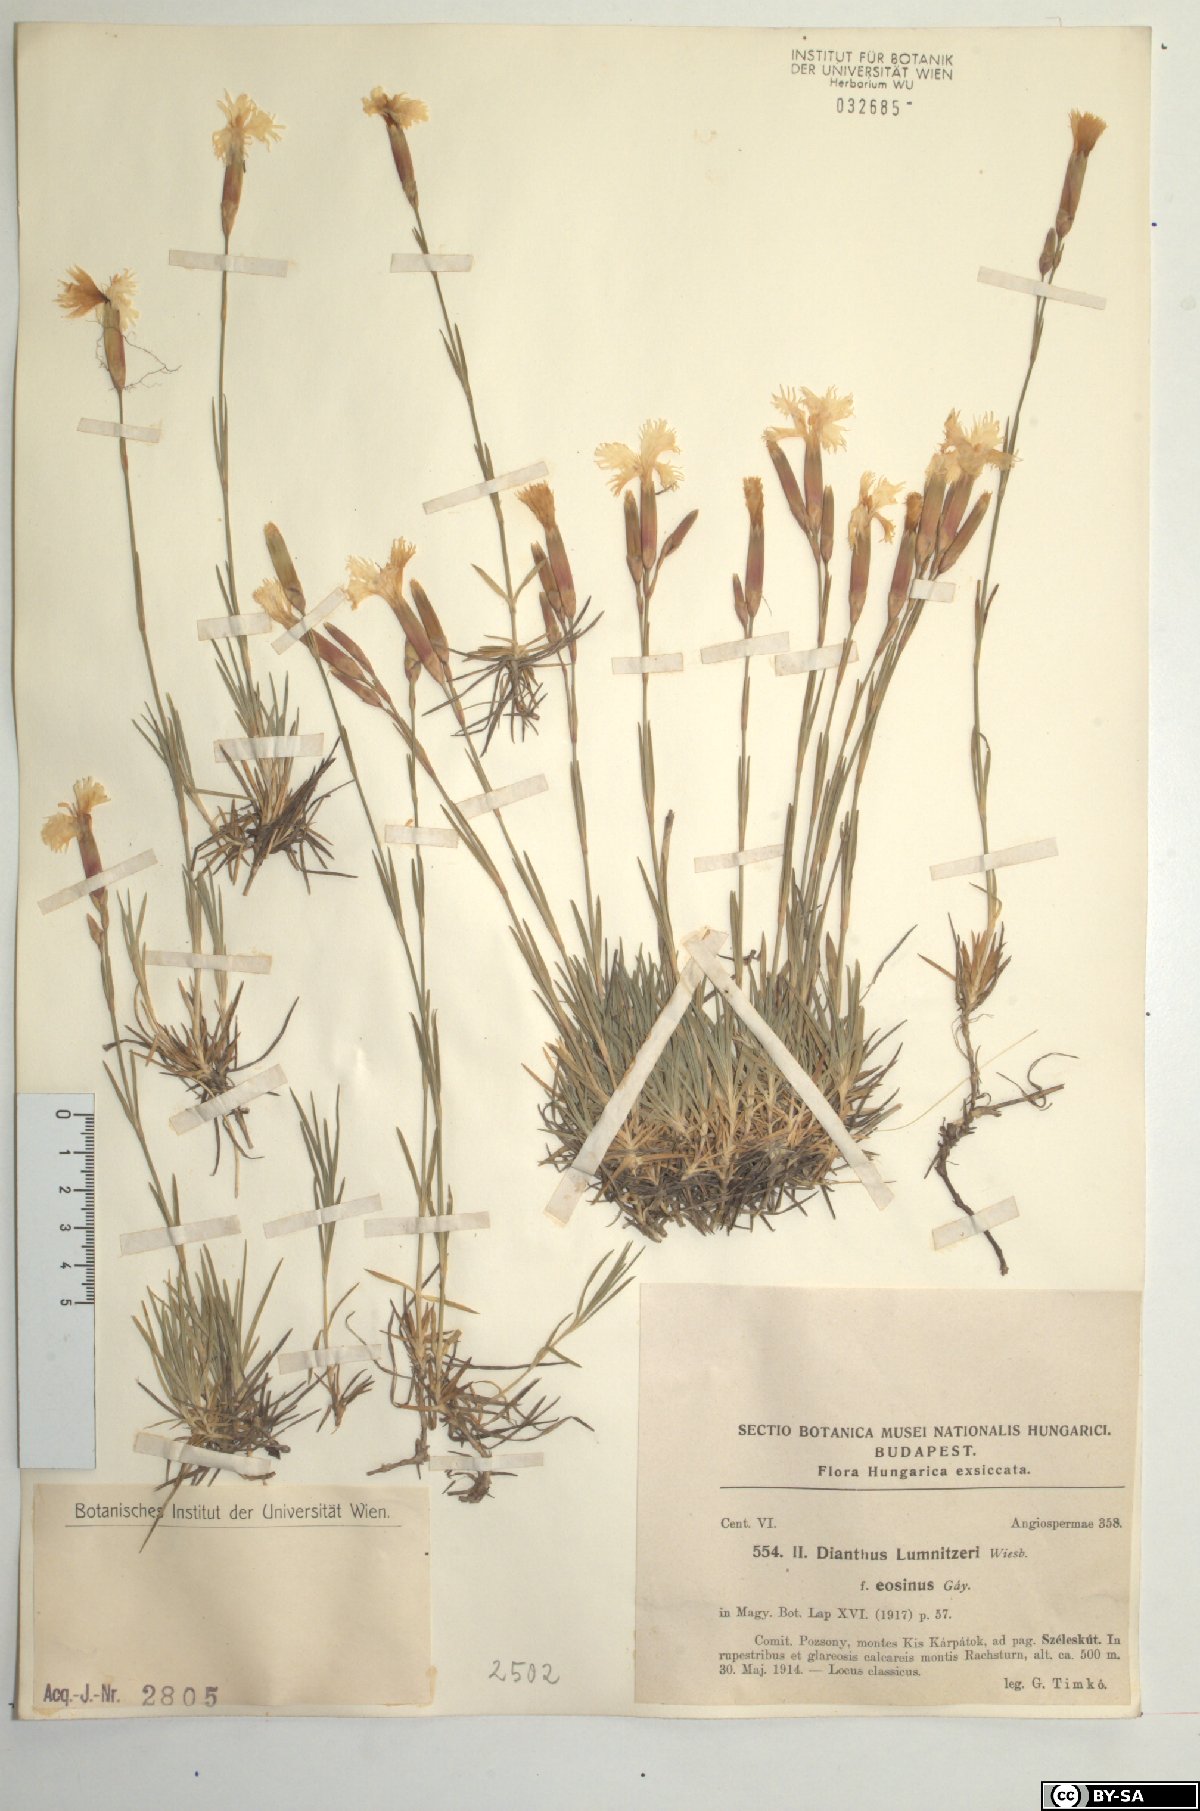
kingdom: Plantae
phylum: Tracheophyta
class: Magnoliopsida
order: Caryophyllales
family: Caryophyllaceae
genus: Dianthus
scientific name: Dianthus praecox
